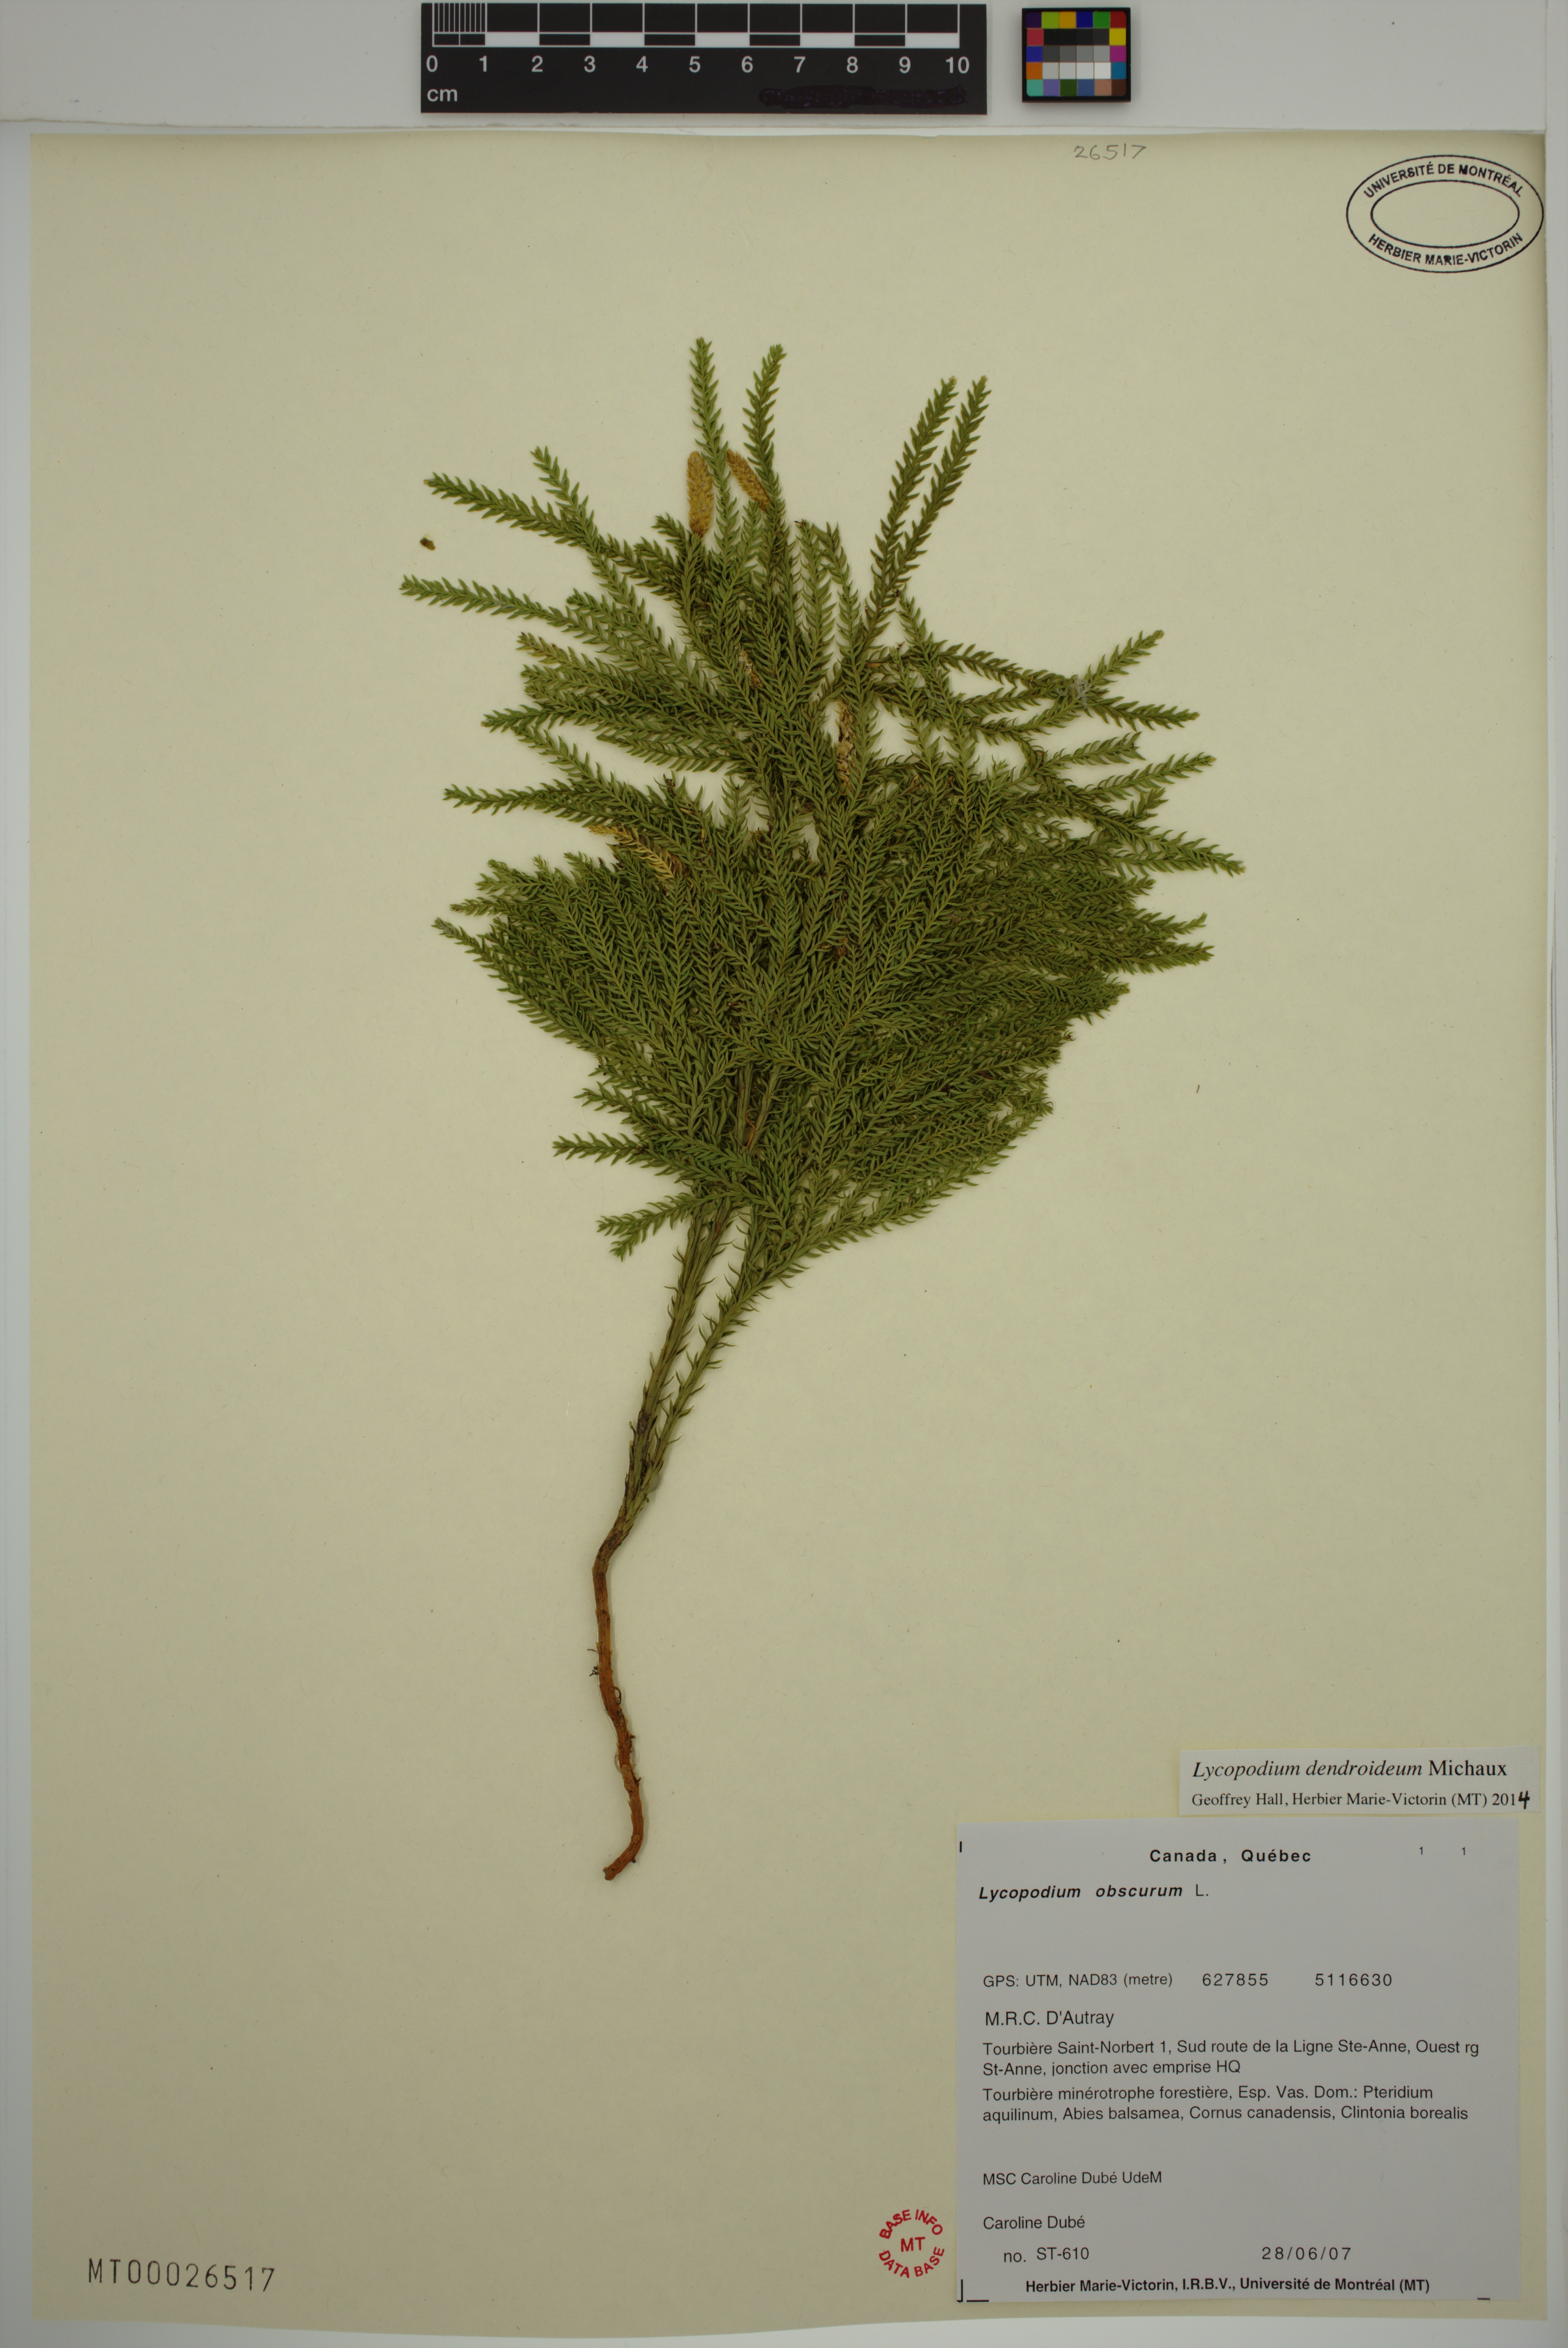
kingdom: Plantae
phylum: Tracheophyta
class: Lycopodiopsida
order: Lycopodiales
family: Lycopodiaceae
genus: Dendrolycopodium
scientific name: Dendrolycopodium dendroideum
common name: Northern tree-clubmoss
